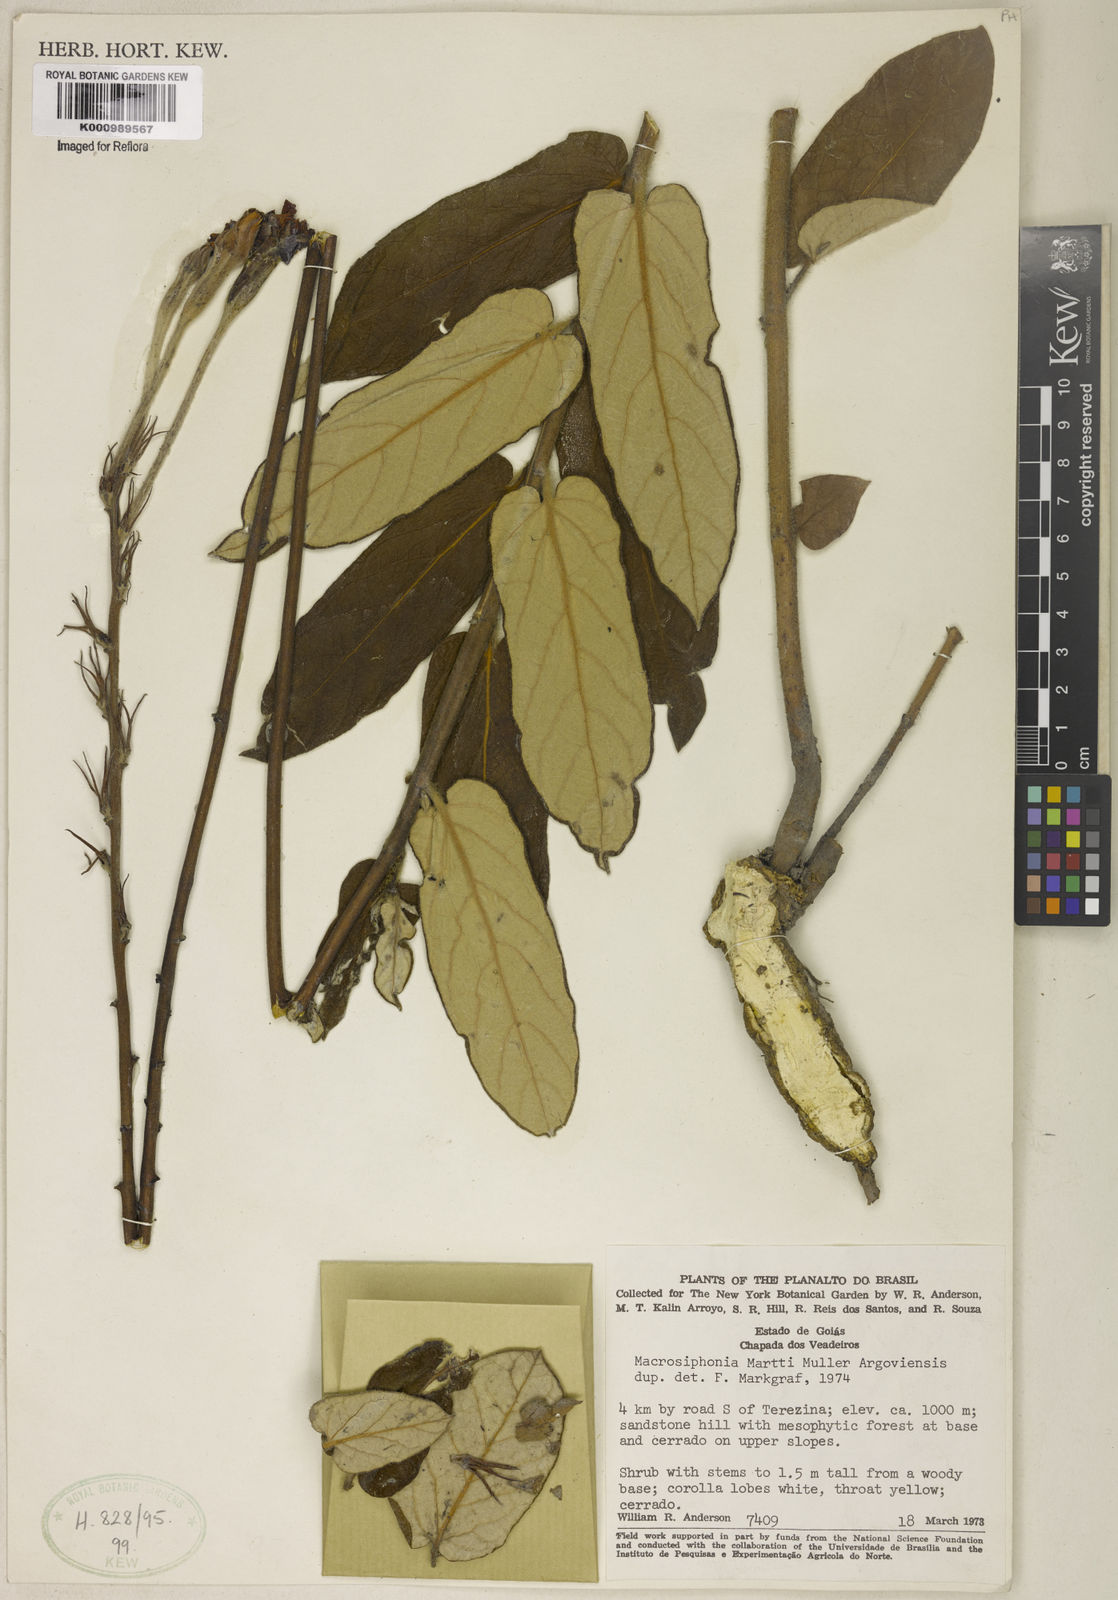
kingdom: Plantae
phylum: Tracheophyta
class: Magnoliopsida
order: Gentianales
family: Apocynaceae
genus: Mandevilla
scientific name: Mandevilla
